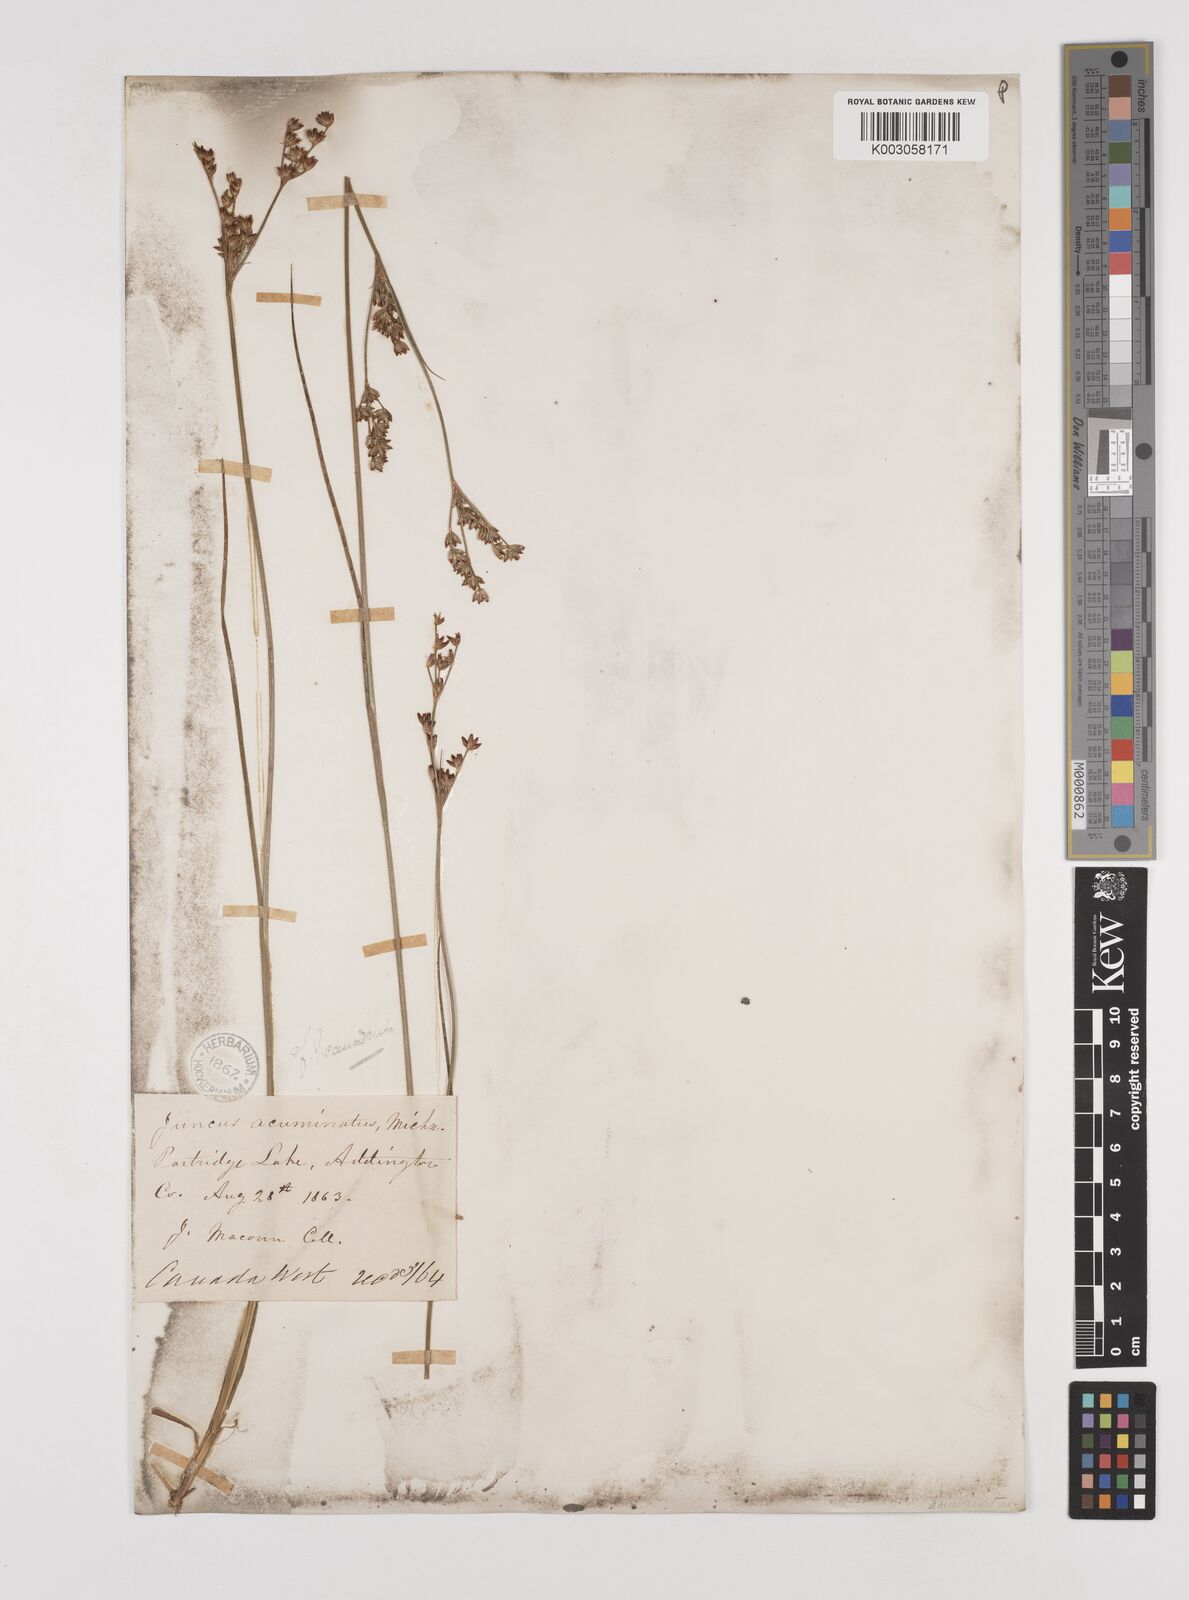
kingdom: Plantae
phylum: Tracheophyta
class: Liliopsida
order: Poales
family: Juncaceae
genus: Juncus
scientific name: Juncus
